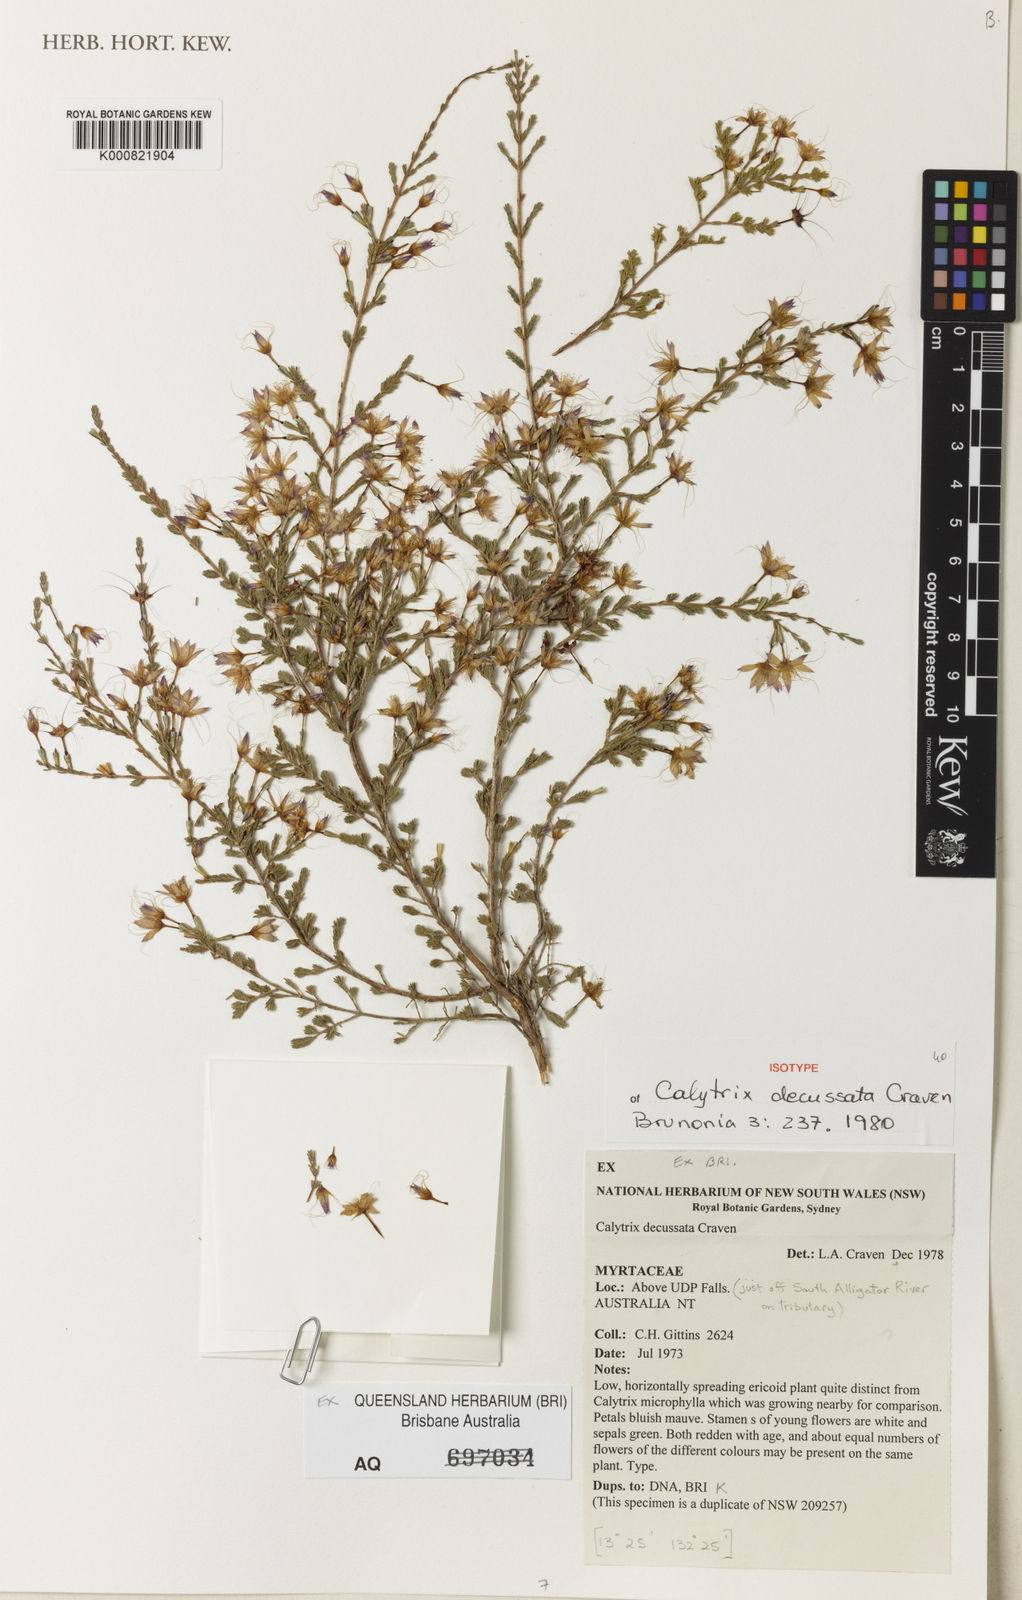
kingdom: Plantae
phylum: Tracheophyta
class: Magnoliopsida
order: Myrtales
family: Myrtaceae
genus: Calytrix
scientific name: Calytrix decussata
